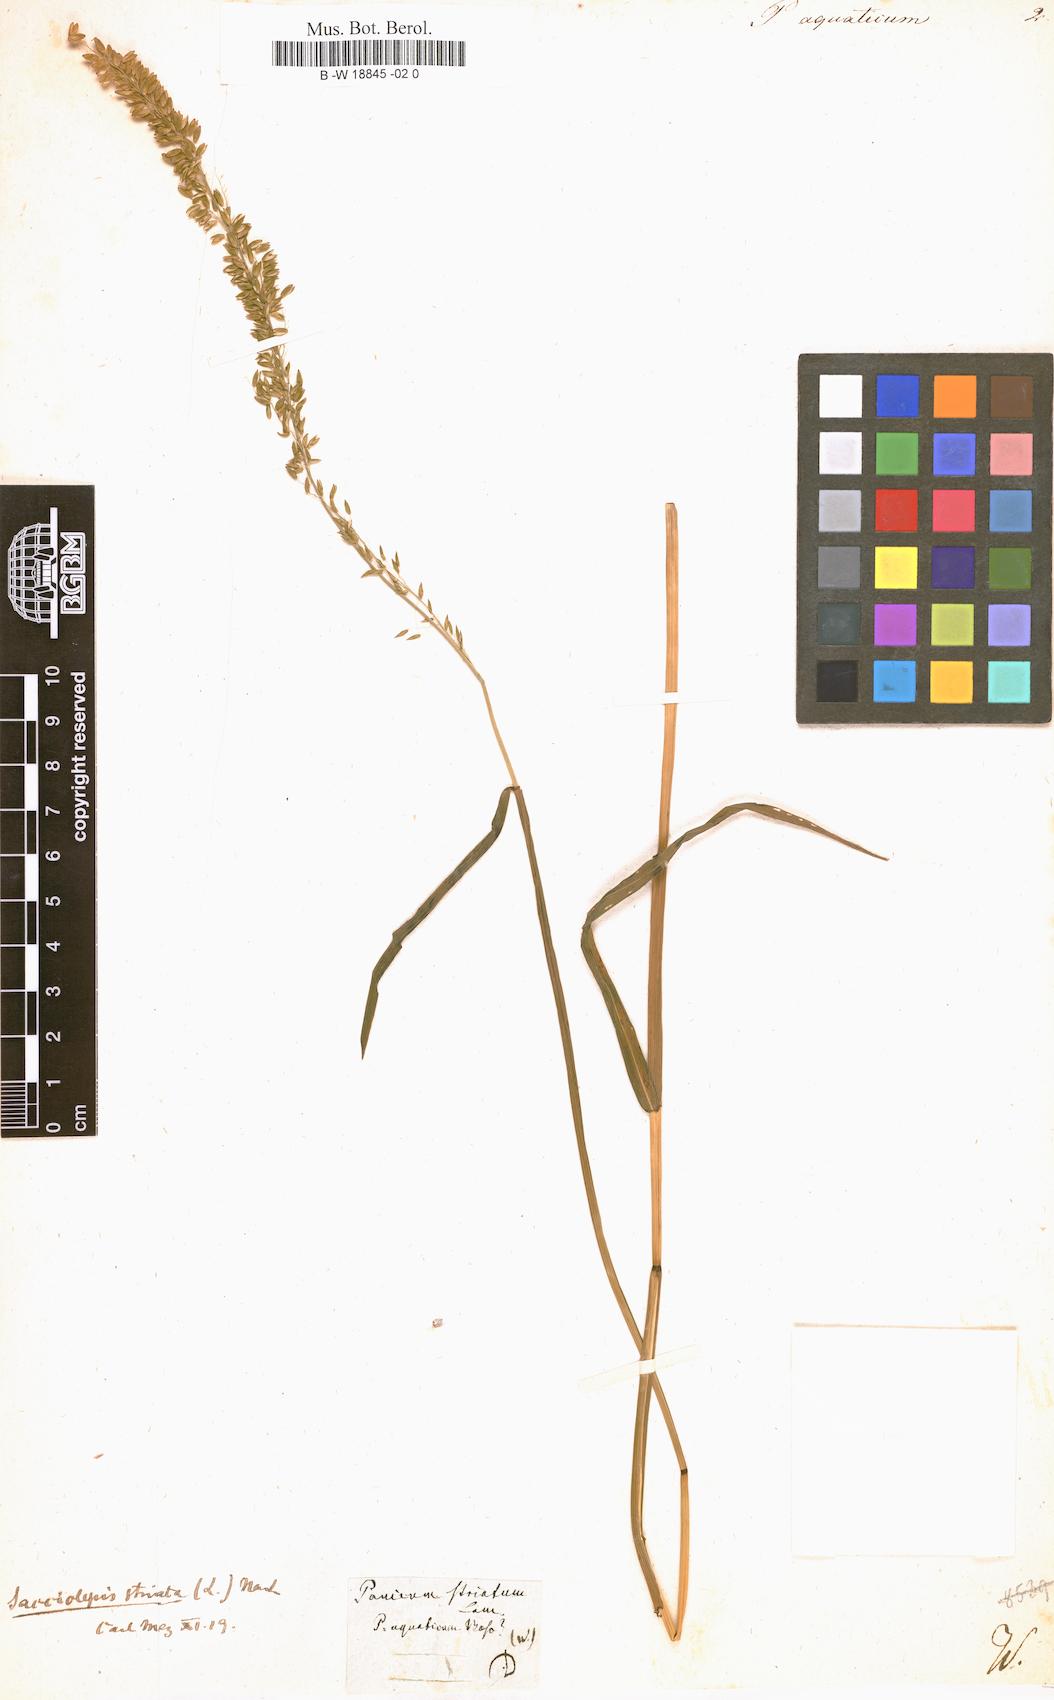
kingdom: Plantae
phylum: Tracheophyta
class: Liliopsida
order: Poales
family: Poaceae
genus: Panicum
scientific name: Panicum aquaticum
